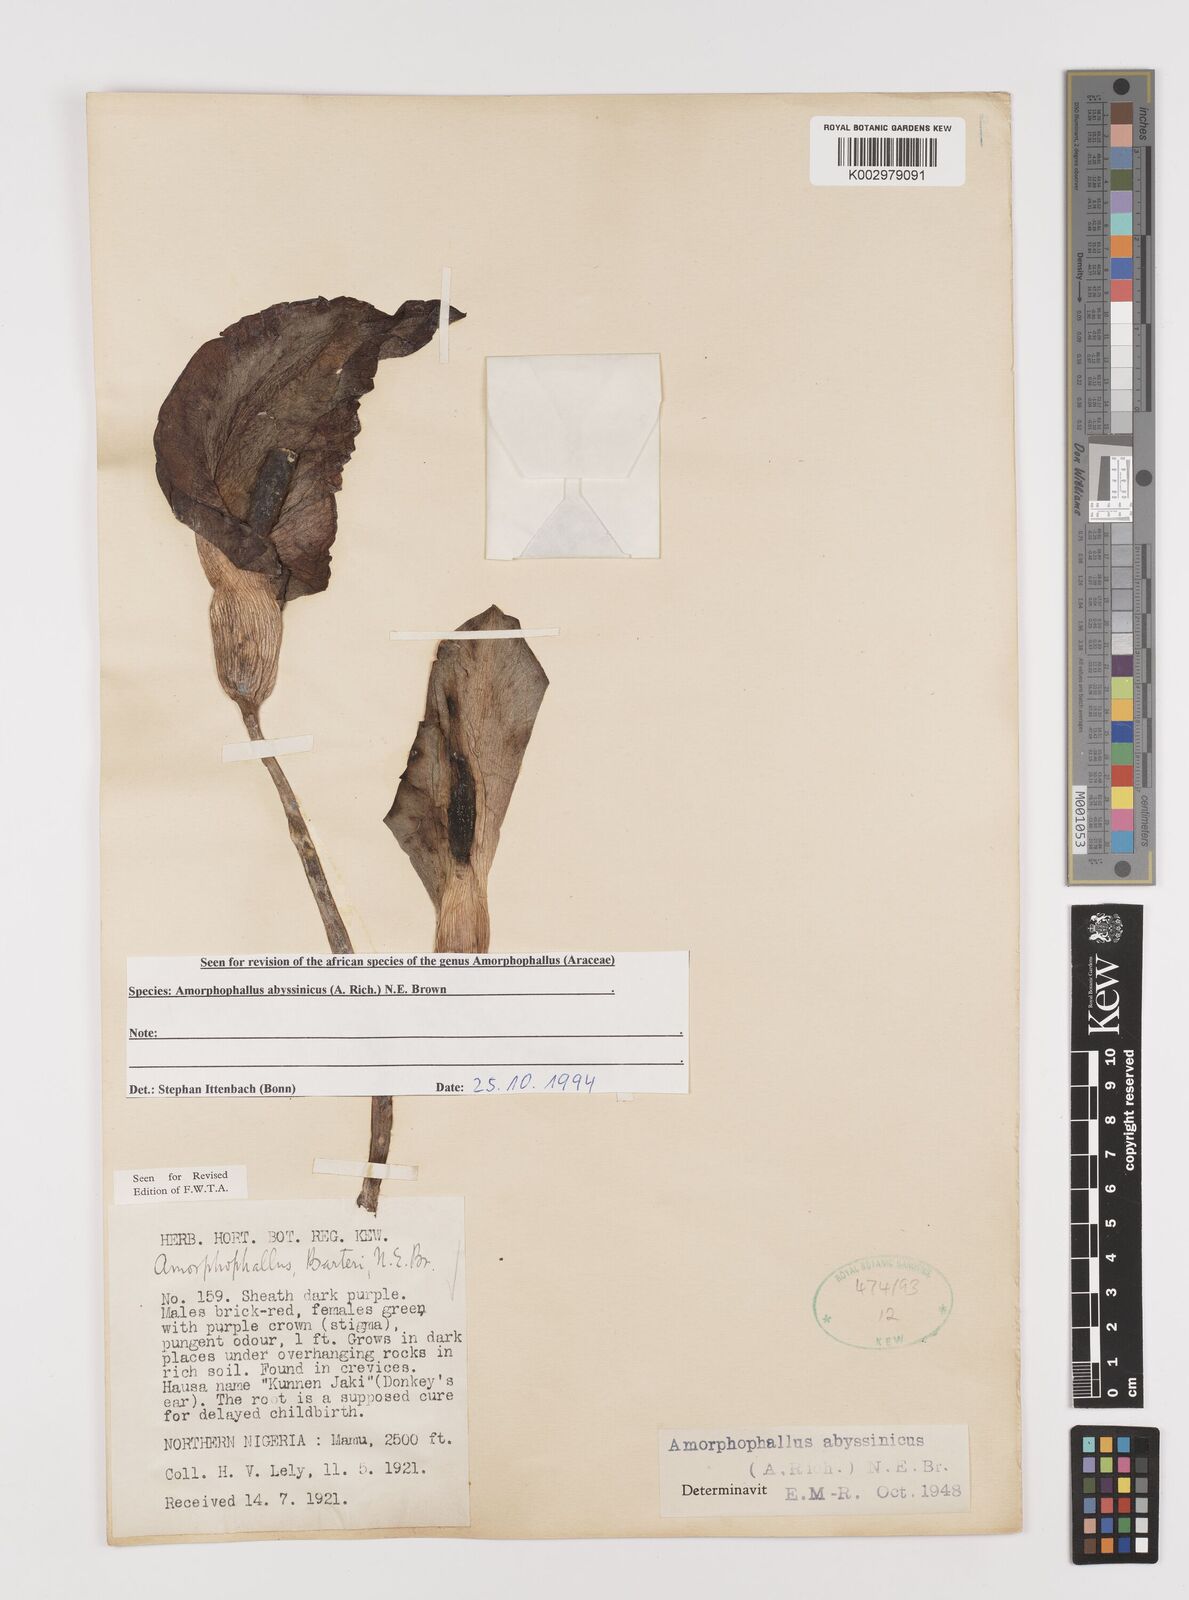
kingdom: Plantae
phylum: Tracheophyta
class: Liliopsida
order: Alismatales
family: Araceae
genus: Amorphophallus
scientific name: Amorphophallus abyssinicus
